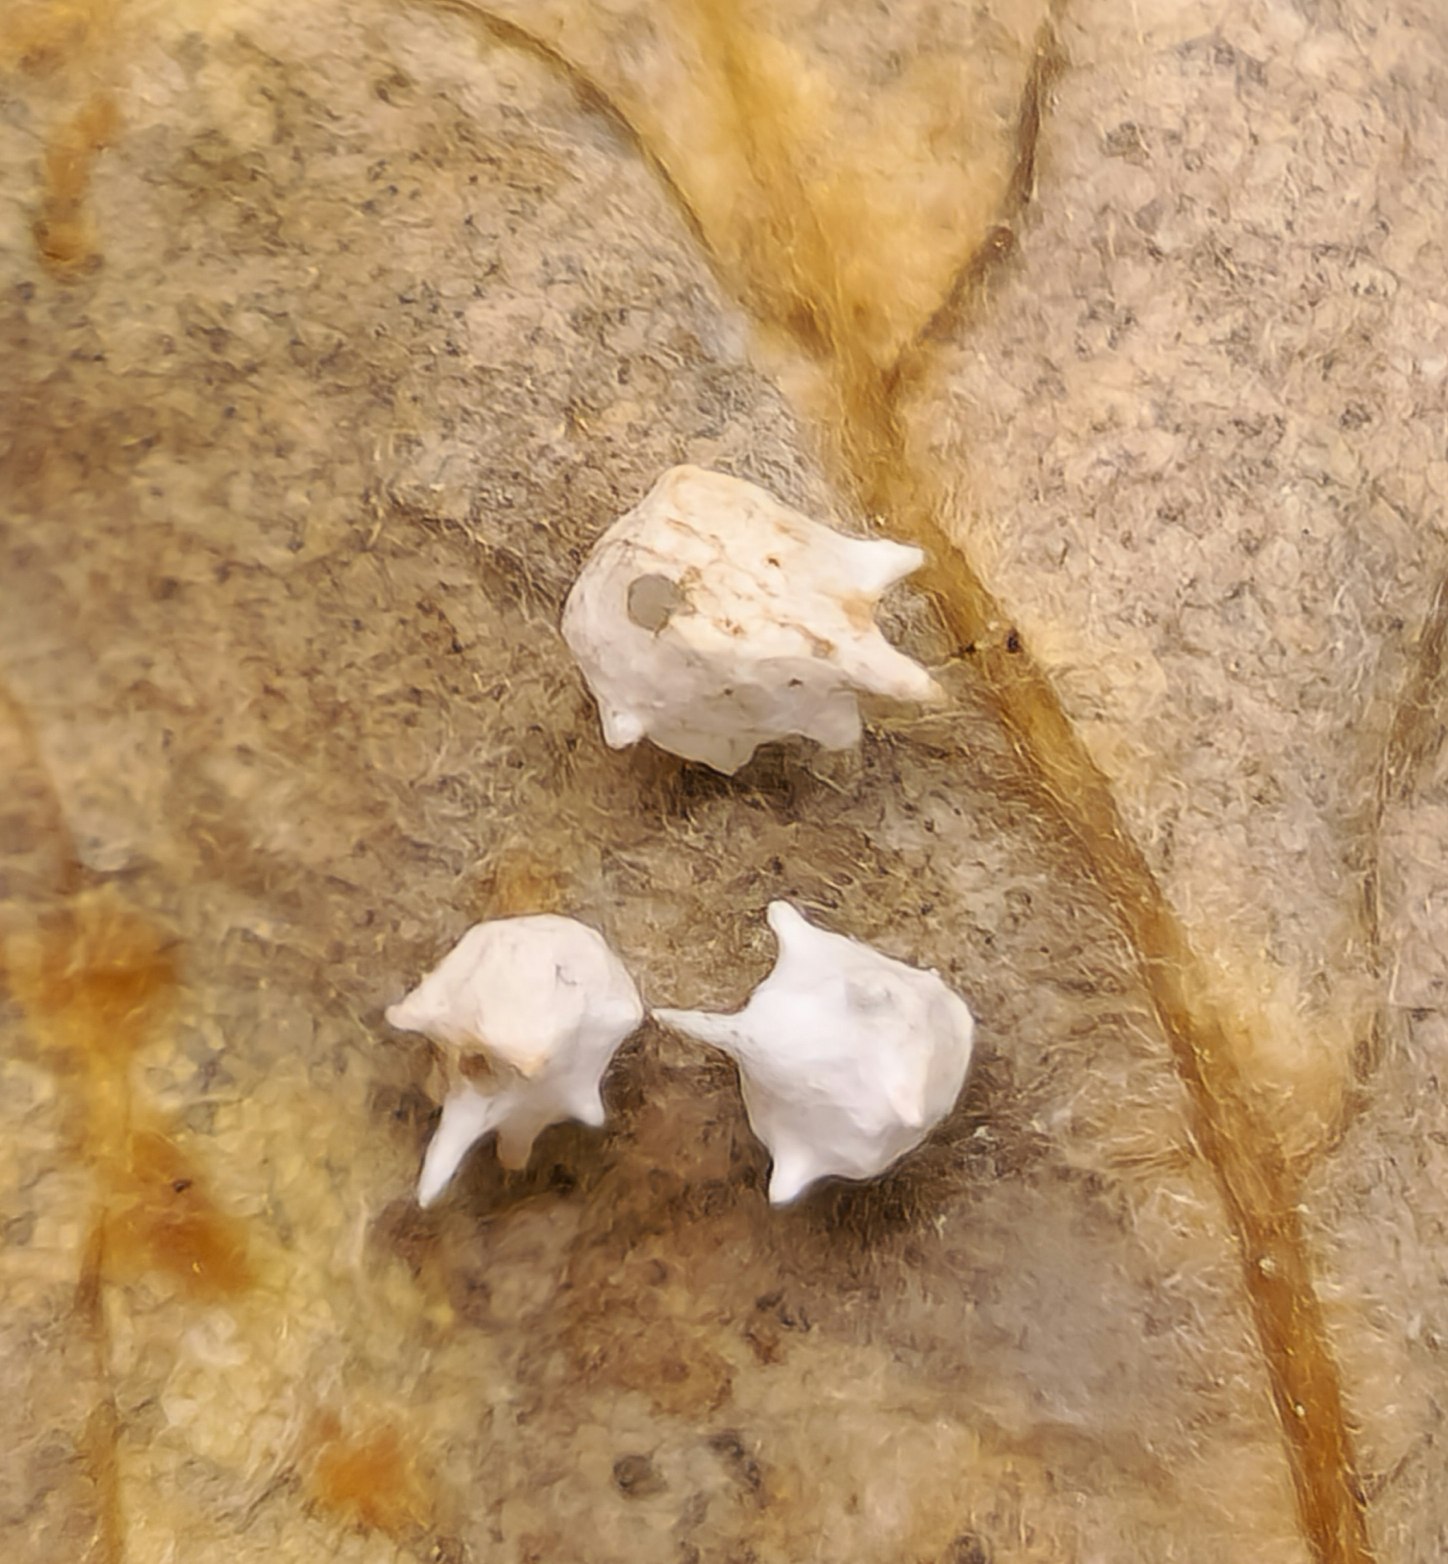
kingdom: Animalia
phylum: Arthropoda
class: Arachnida
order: Araneae
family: Theridiidae
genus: Paidiscura
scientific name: Paidiscura pallens
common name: Lille bladkugleedderkop
